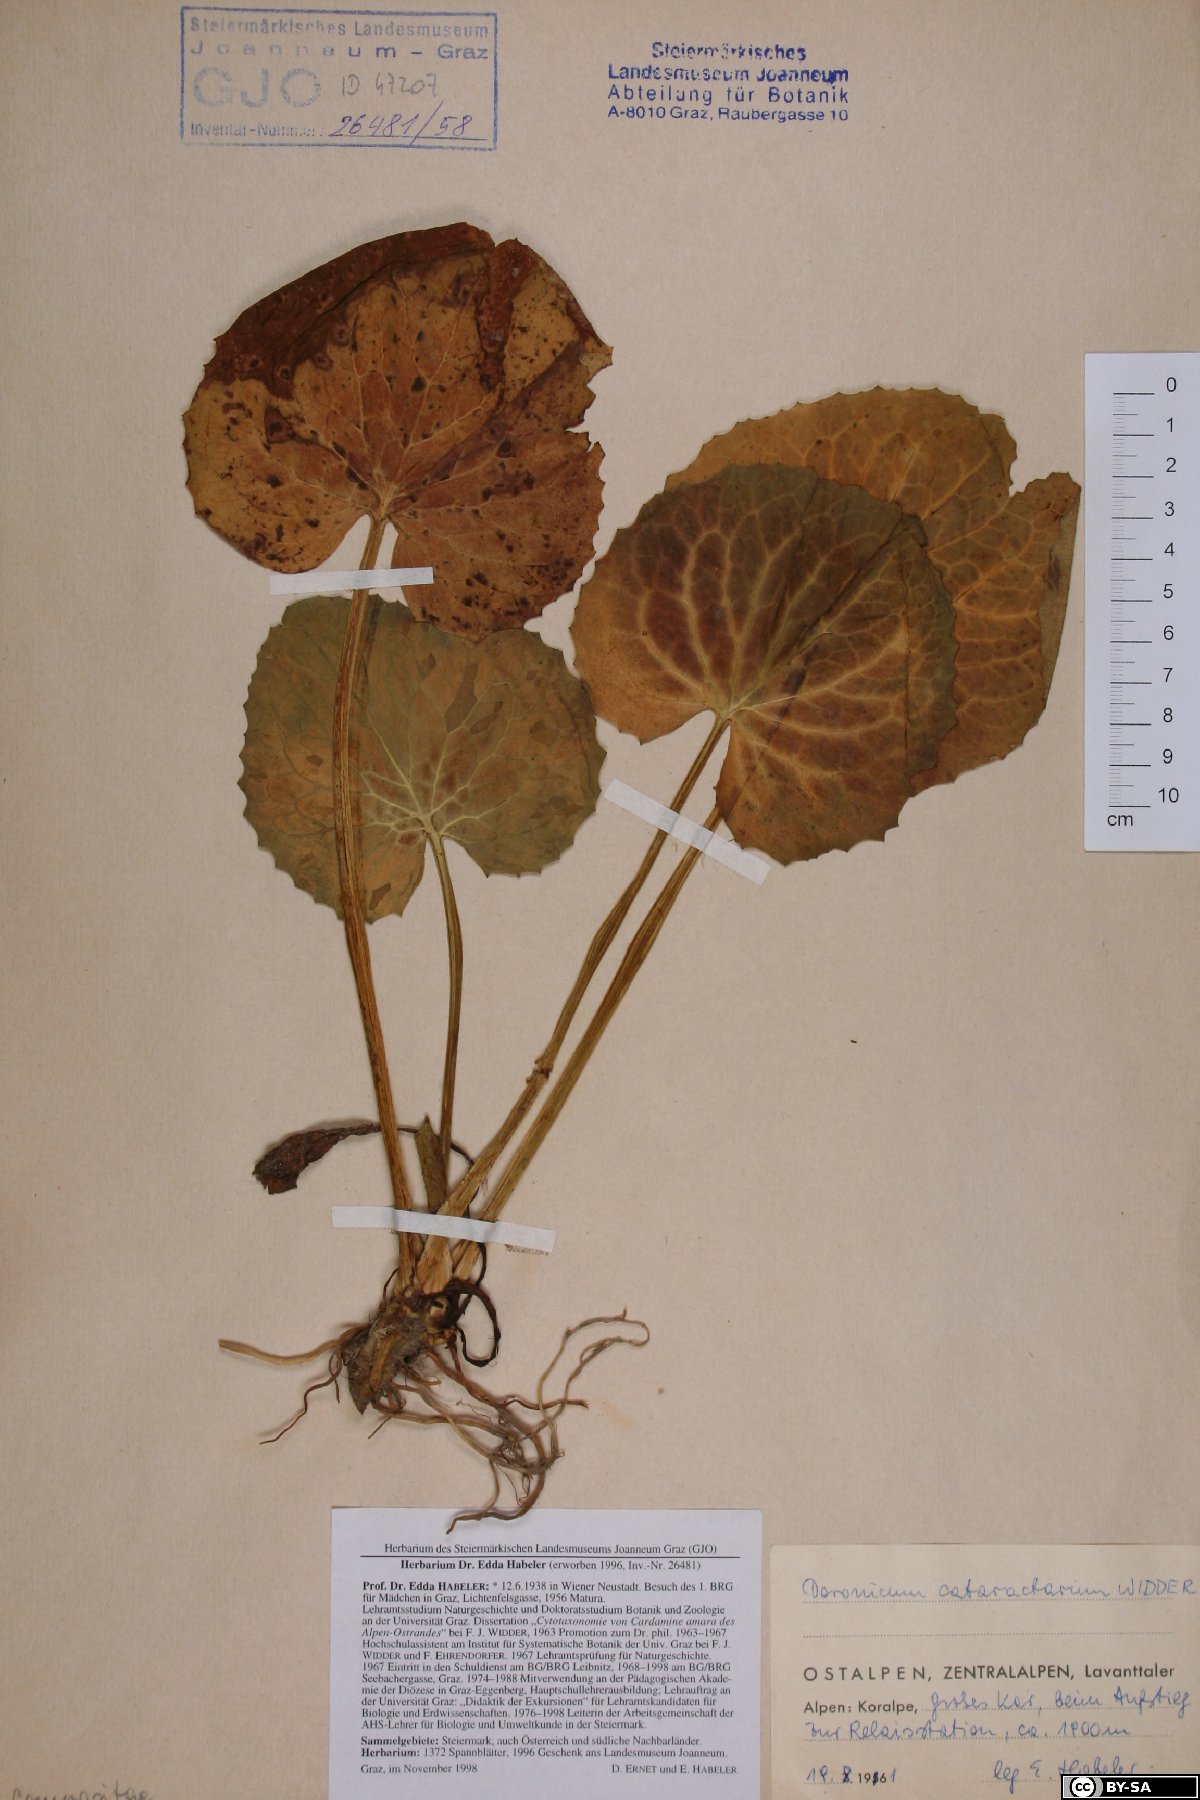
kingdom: Plantae
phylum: Tracheophyta
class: Magnoliopsida
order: Asterales
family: Asteraceae
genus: Doronicum
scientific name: Doronicum cataractarum
